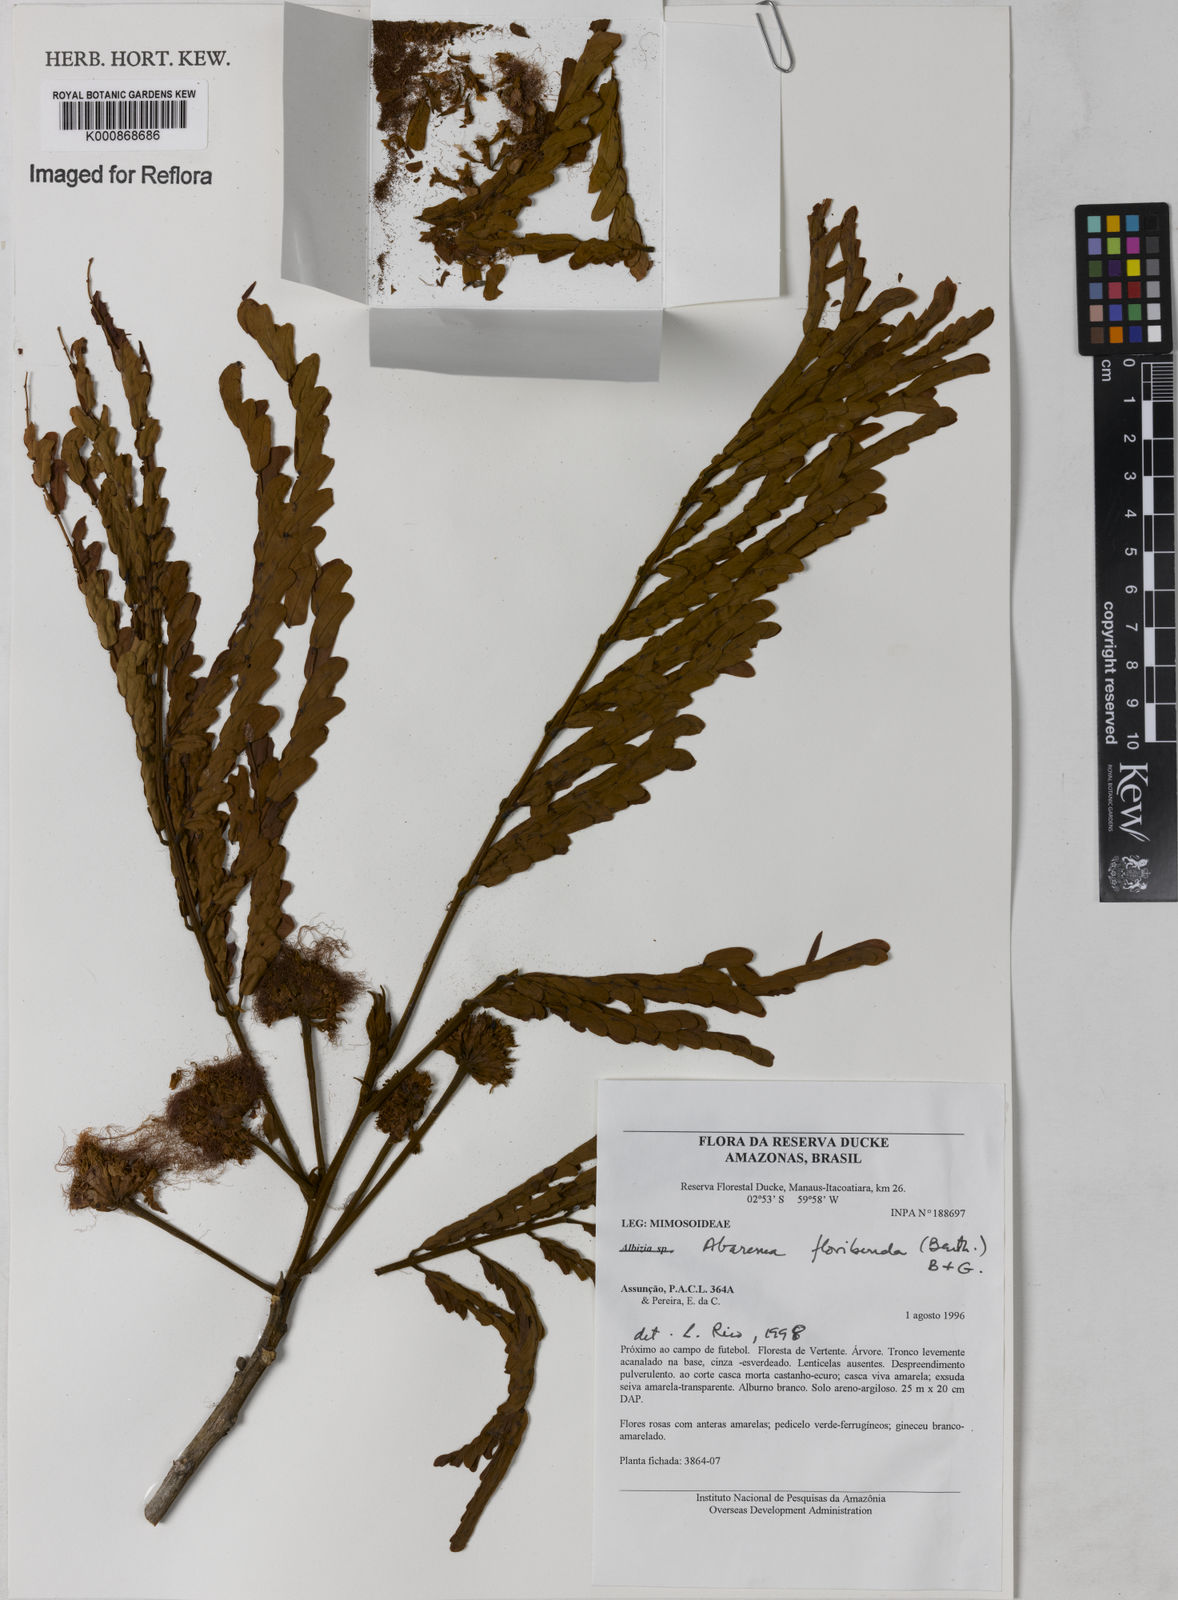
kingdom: Plantae
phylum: Tracheophyta
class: Magnoliopsida
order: Fabales
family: Fabaceae
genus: Jupunba
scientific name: Jupunba floribunda
